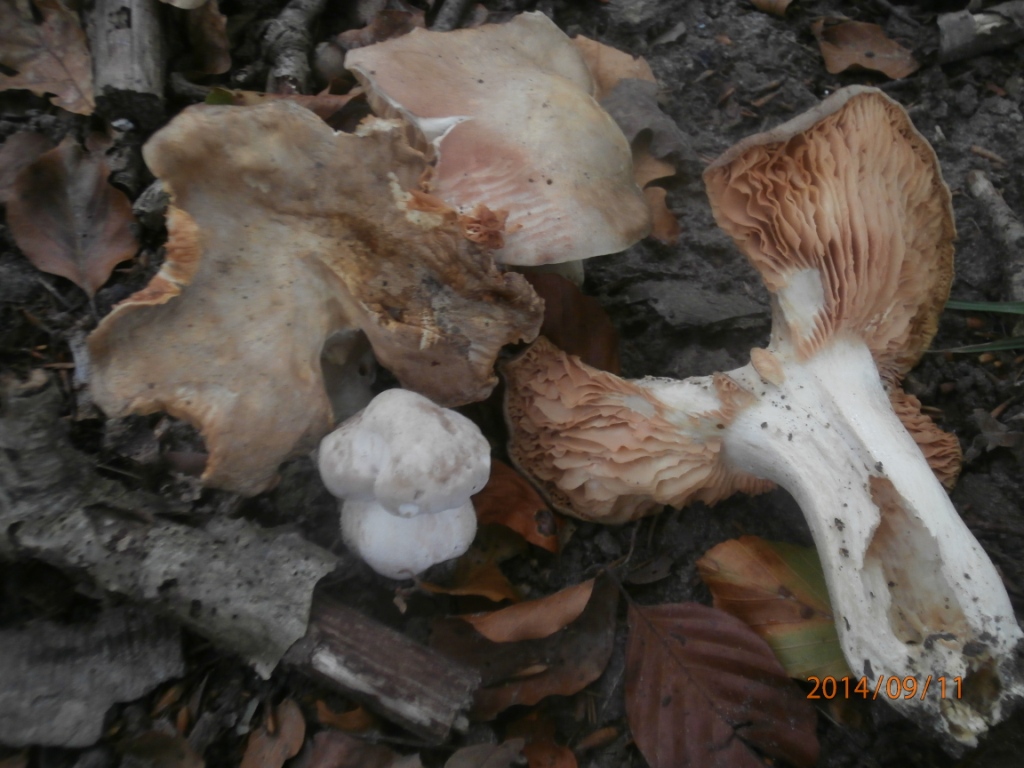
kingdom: Fungi
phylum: Basidiomycota
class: Agaricomycetes
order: Agaricales
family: Entolomataceae
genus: Entoloma
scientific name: Entoloma sinuatum
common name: giftig rødblad
